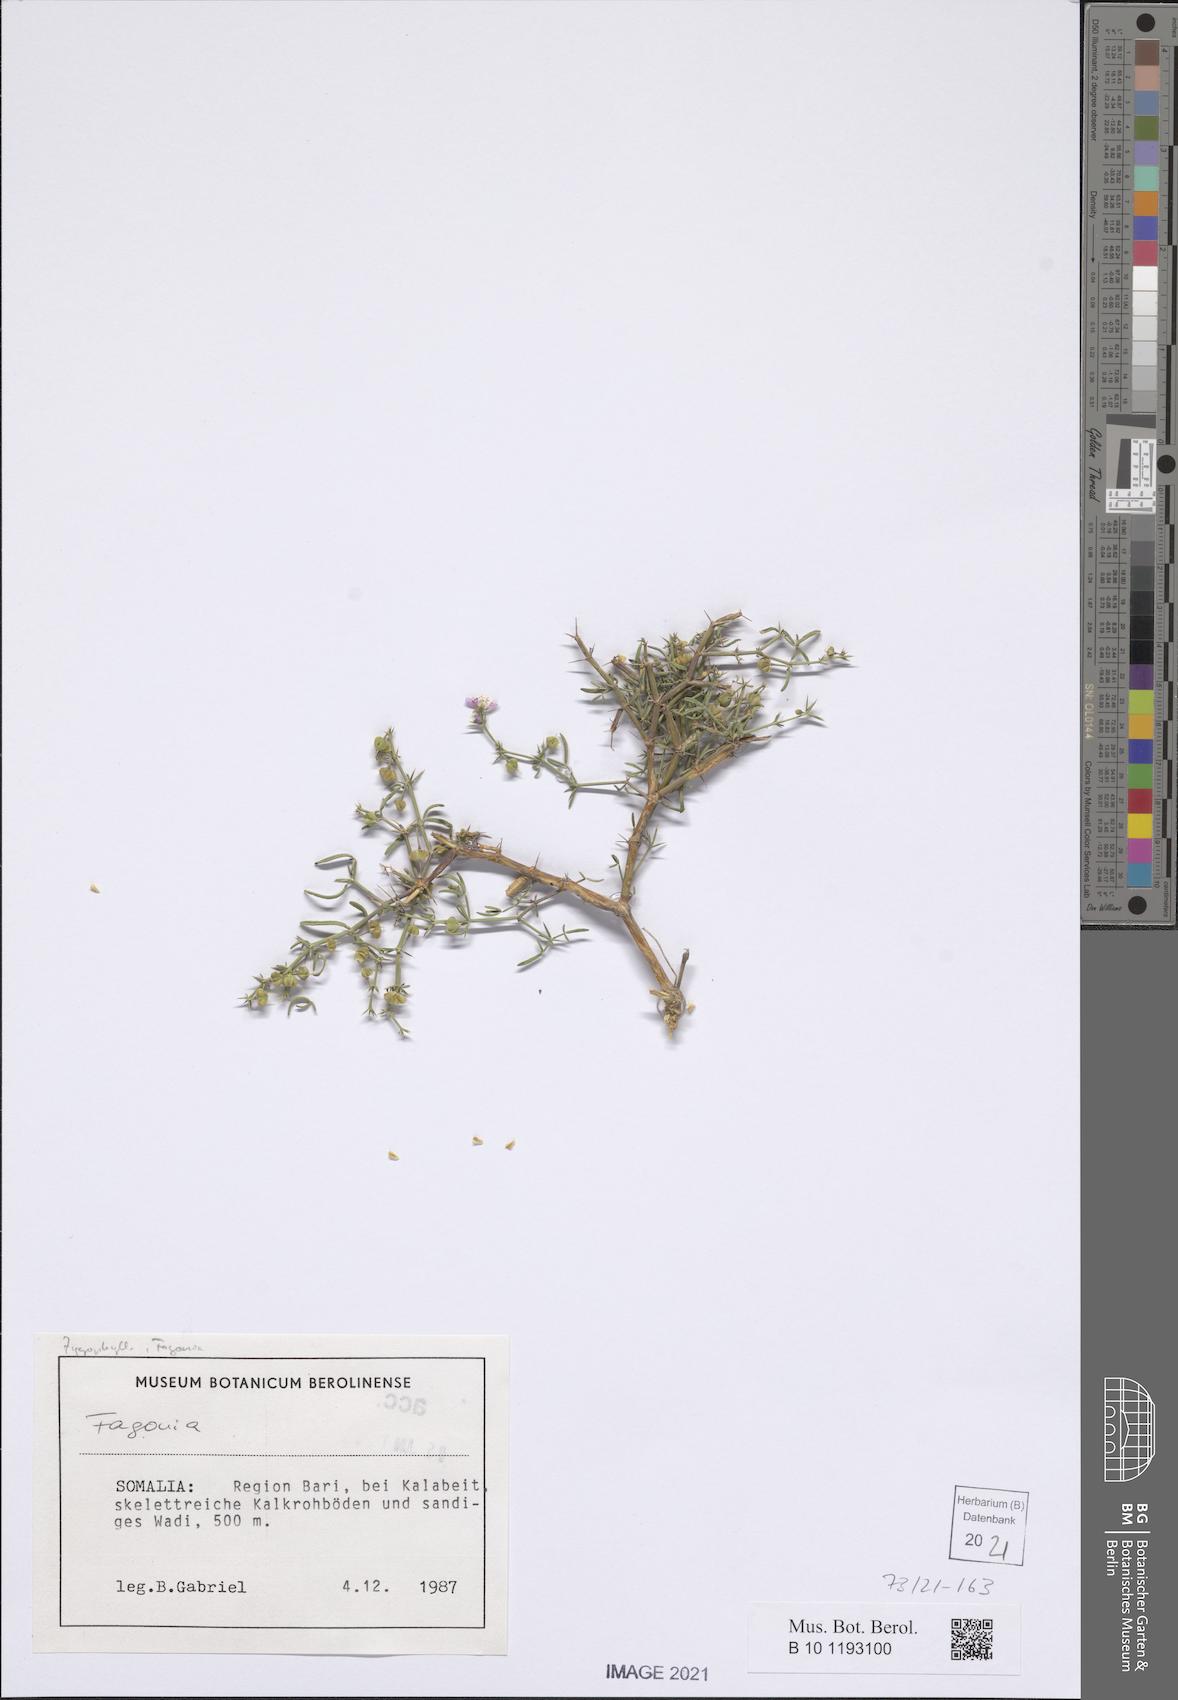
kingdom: Plantae
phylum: Tracheophyta
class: Magnoliopsida
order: Zygophyllales
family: Zygophyllaceae
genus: Fagonia
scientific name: Fagonia
